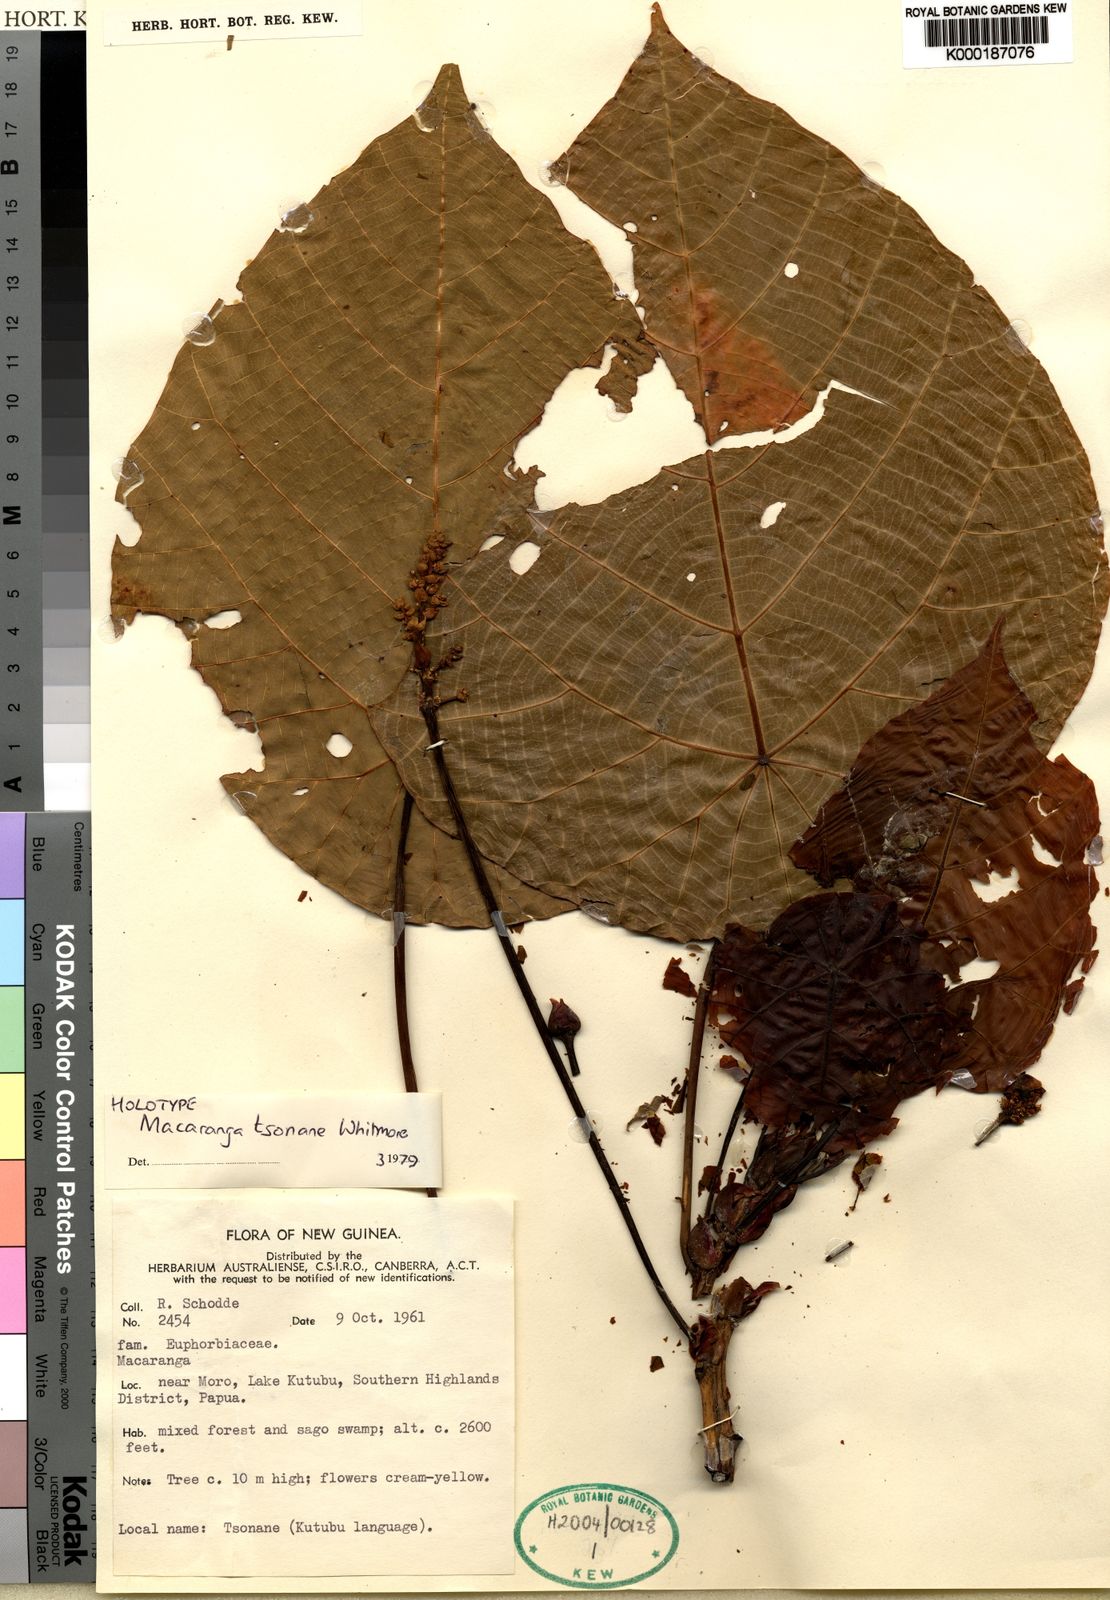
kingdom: Plantae
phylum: Tracheophyta
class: Magnoliopsida
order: Malpighiales
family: Euphorbiaceae
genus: Macaranga
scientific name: Macaranga tsonane
